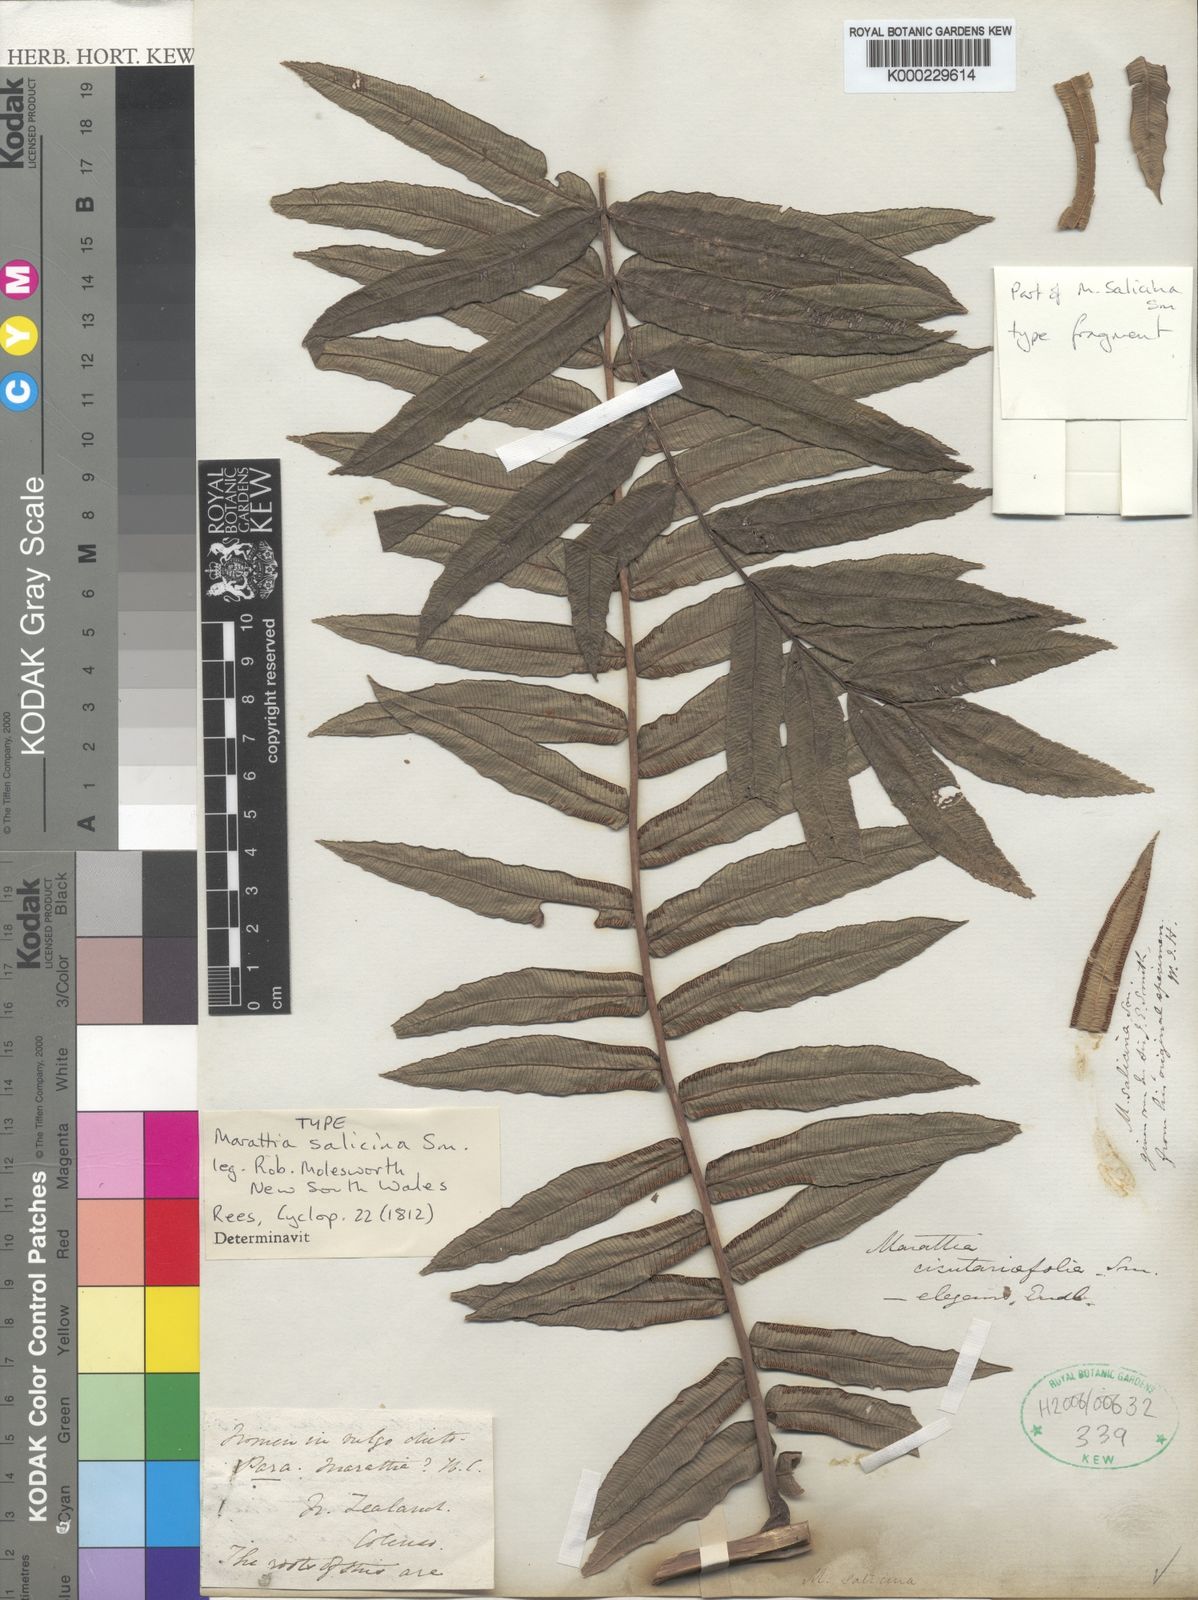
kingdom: Plantae
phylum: Tracheophyta
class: Polypodiopsida
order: Marattiales
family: Marattiaceae
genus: Ptisana
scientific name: Ptisana salicina
